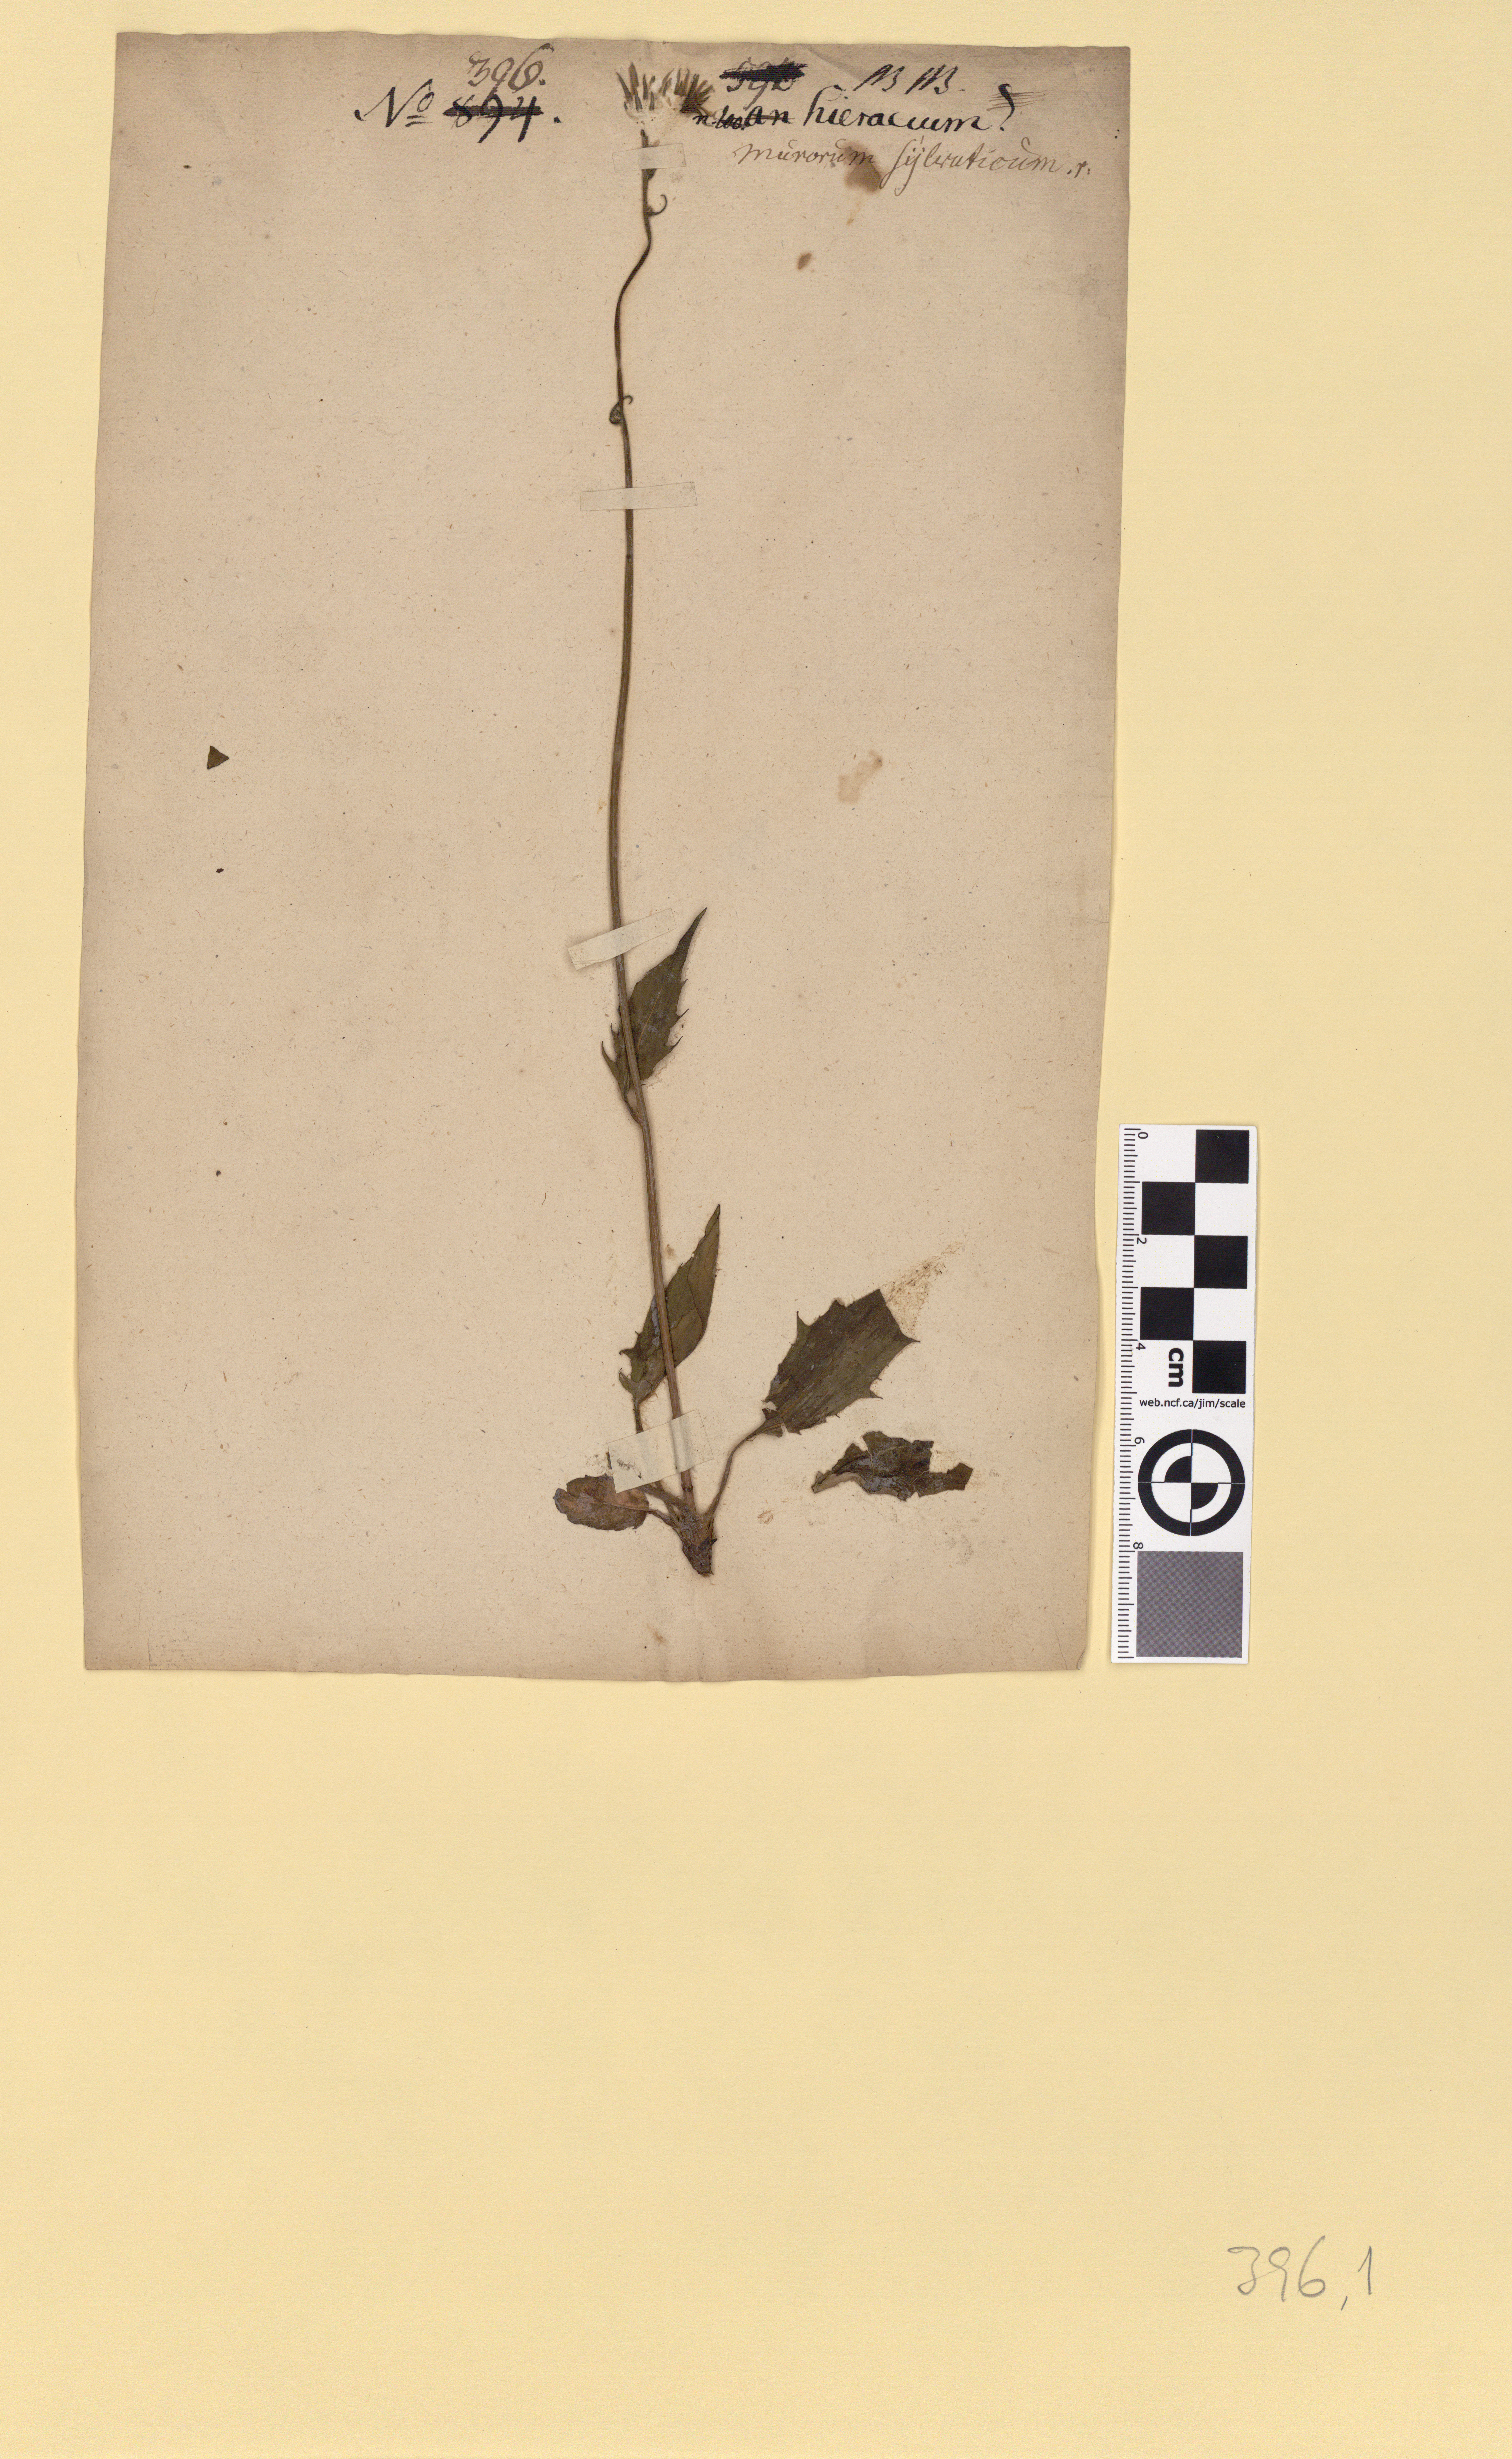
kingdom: Plantae
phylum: Tracheophyta
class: Magnoliopsida
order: Asterales
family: Asteraceae
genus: Hieracium
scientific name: Hieracium murorum
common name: Wall hawkweed
